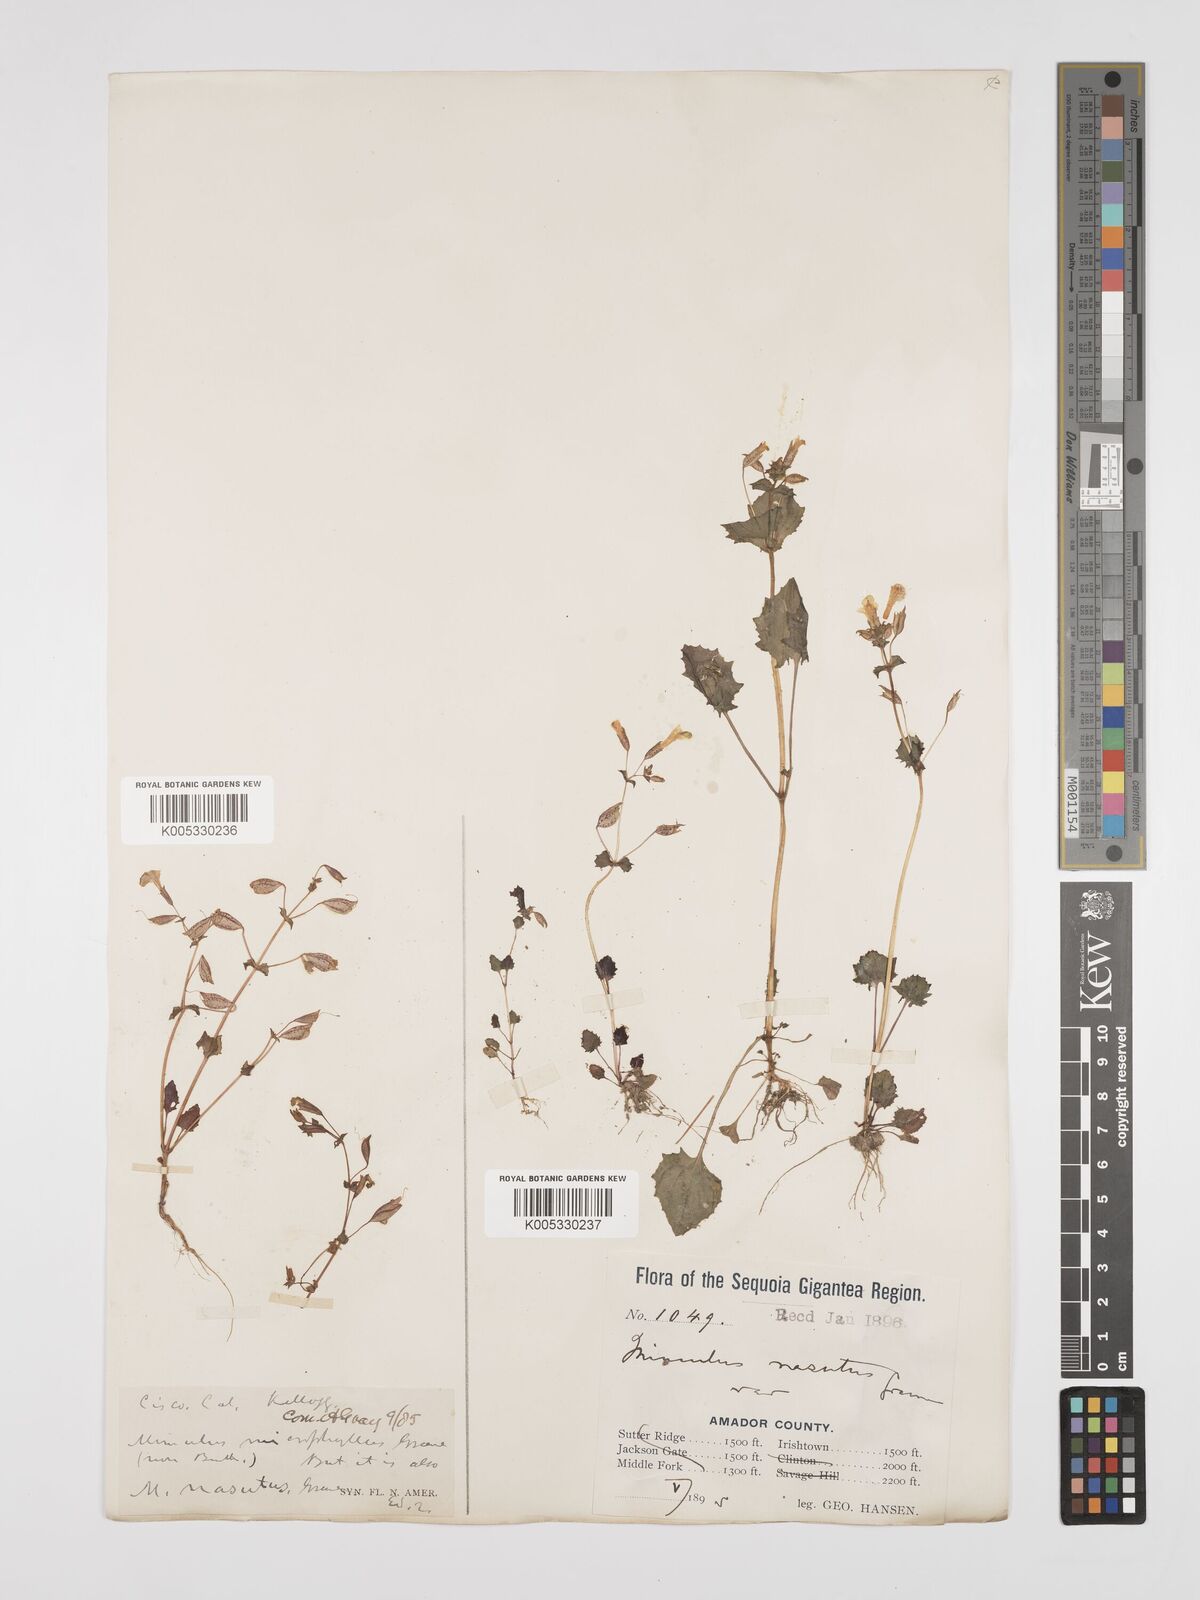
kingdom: Plantae
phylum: Tracheophyta
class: Magnoliopsida
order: Lamiales
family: Phrymaceae
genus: Erythranthe
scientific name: Erythranthe nasuta
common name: Sooke monkeyflower
